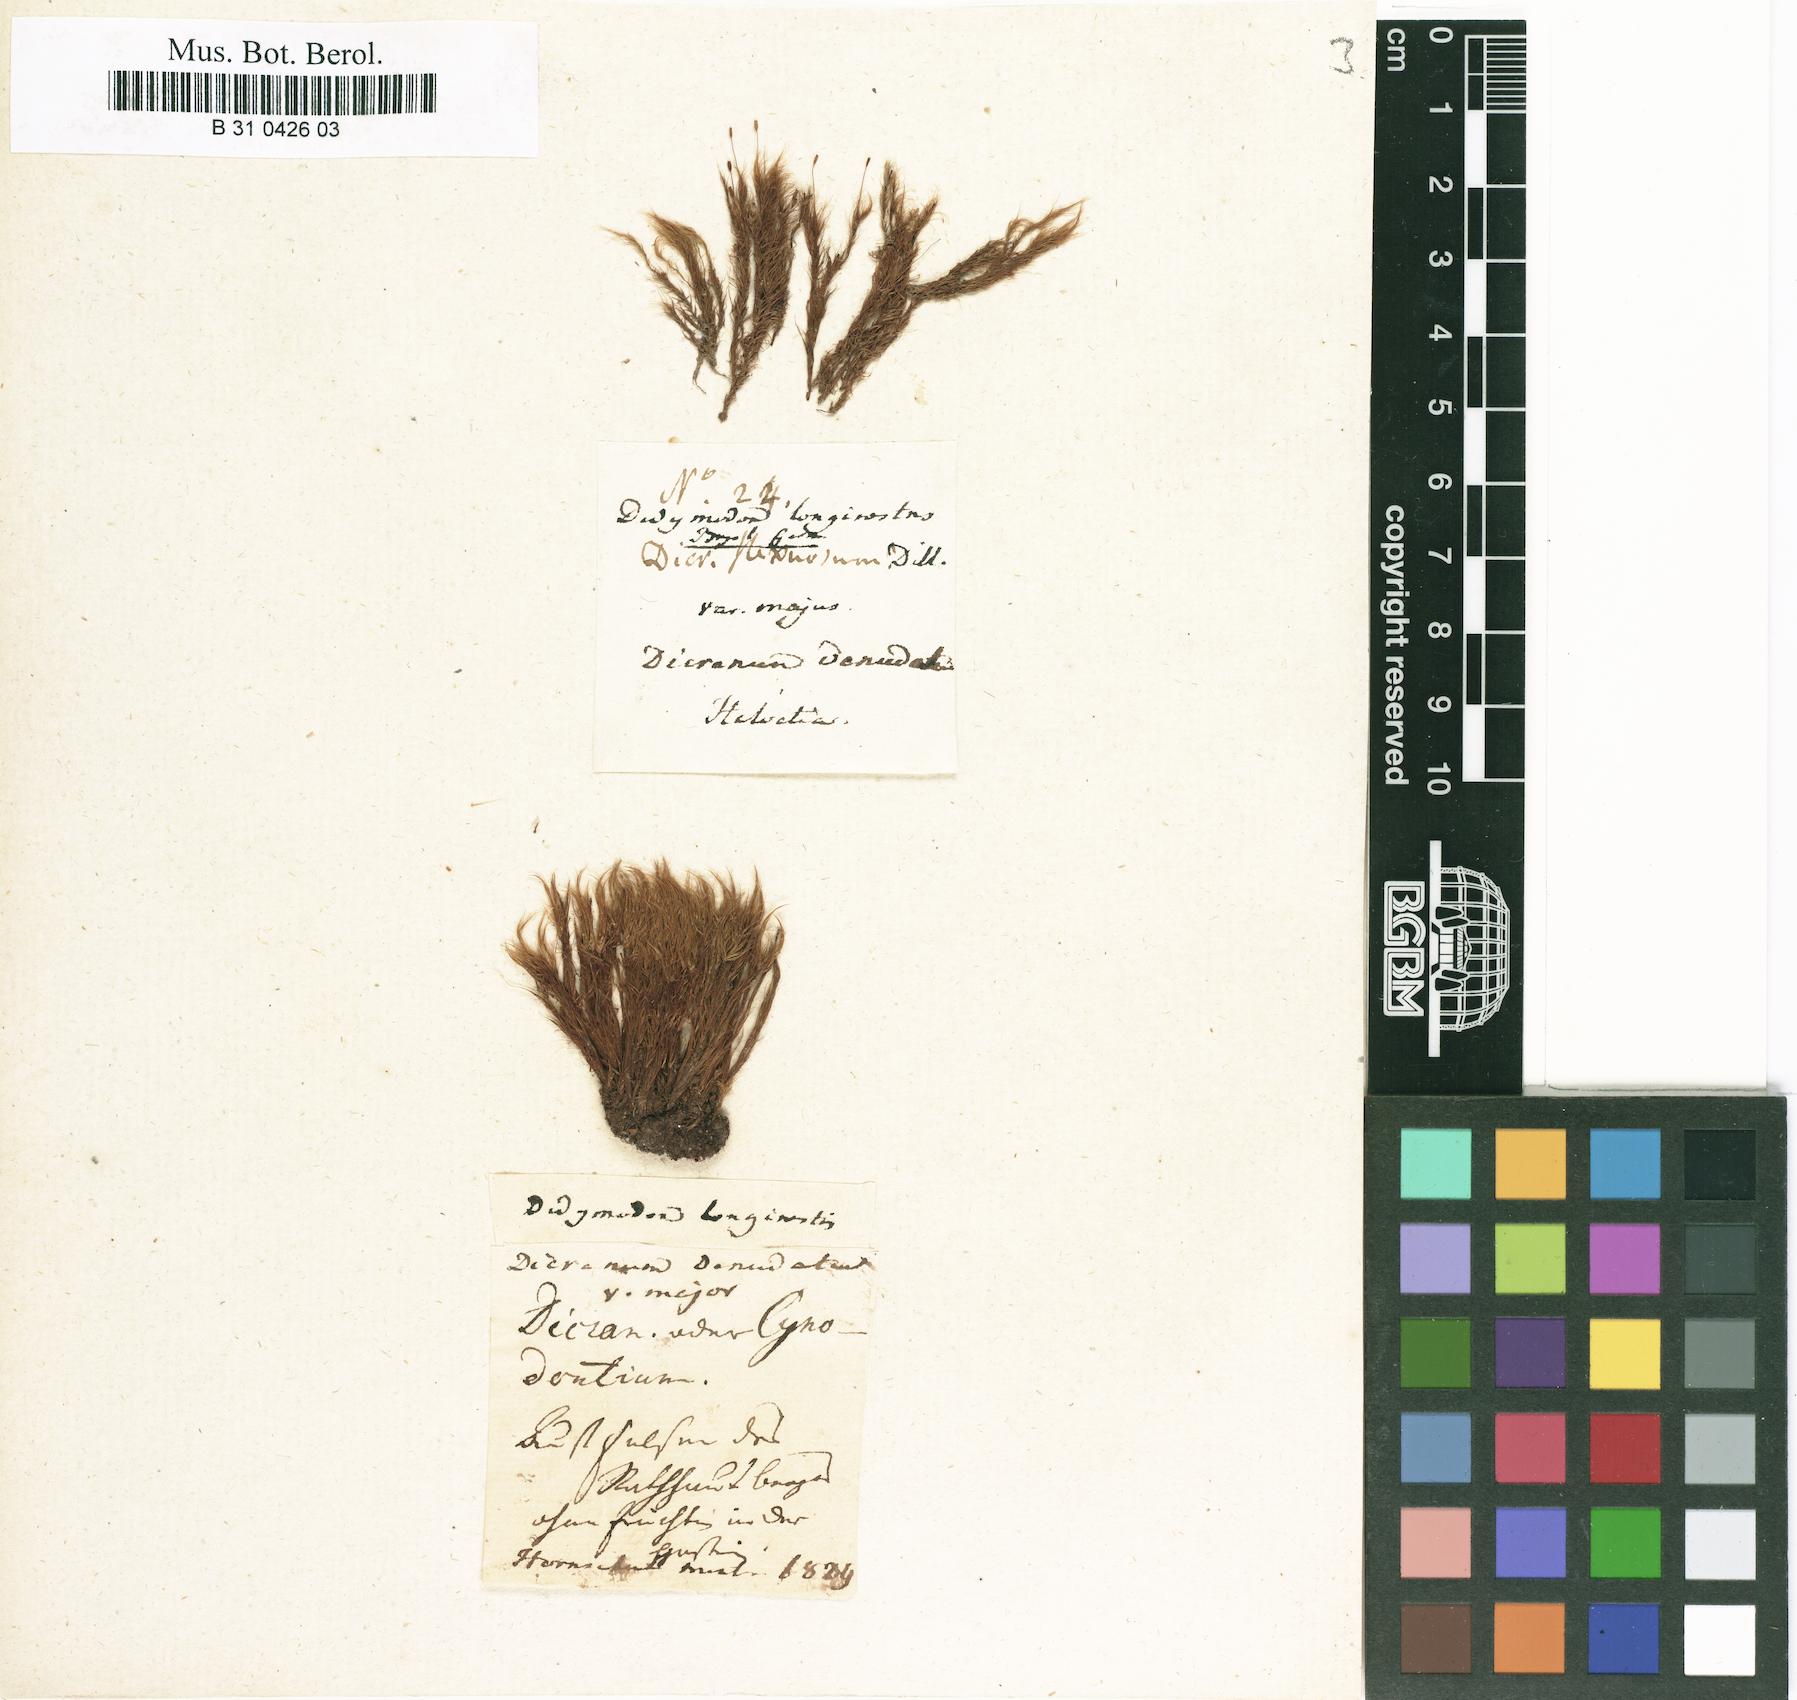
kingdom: Plantae
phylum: Bryophyta
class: Bryopsida
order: Dicranales
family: Leucobryaceae
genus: Dicranodontium
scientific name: Dicranodontium denudatum
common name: Beaked bow moss
